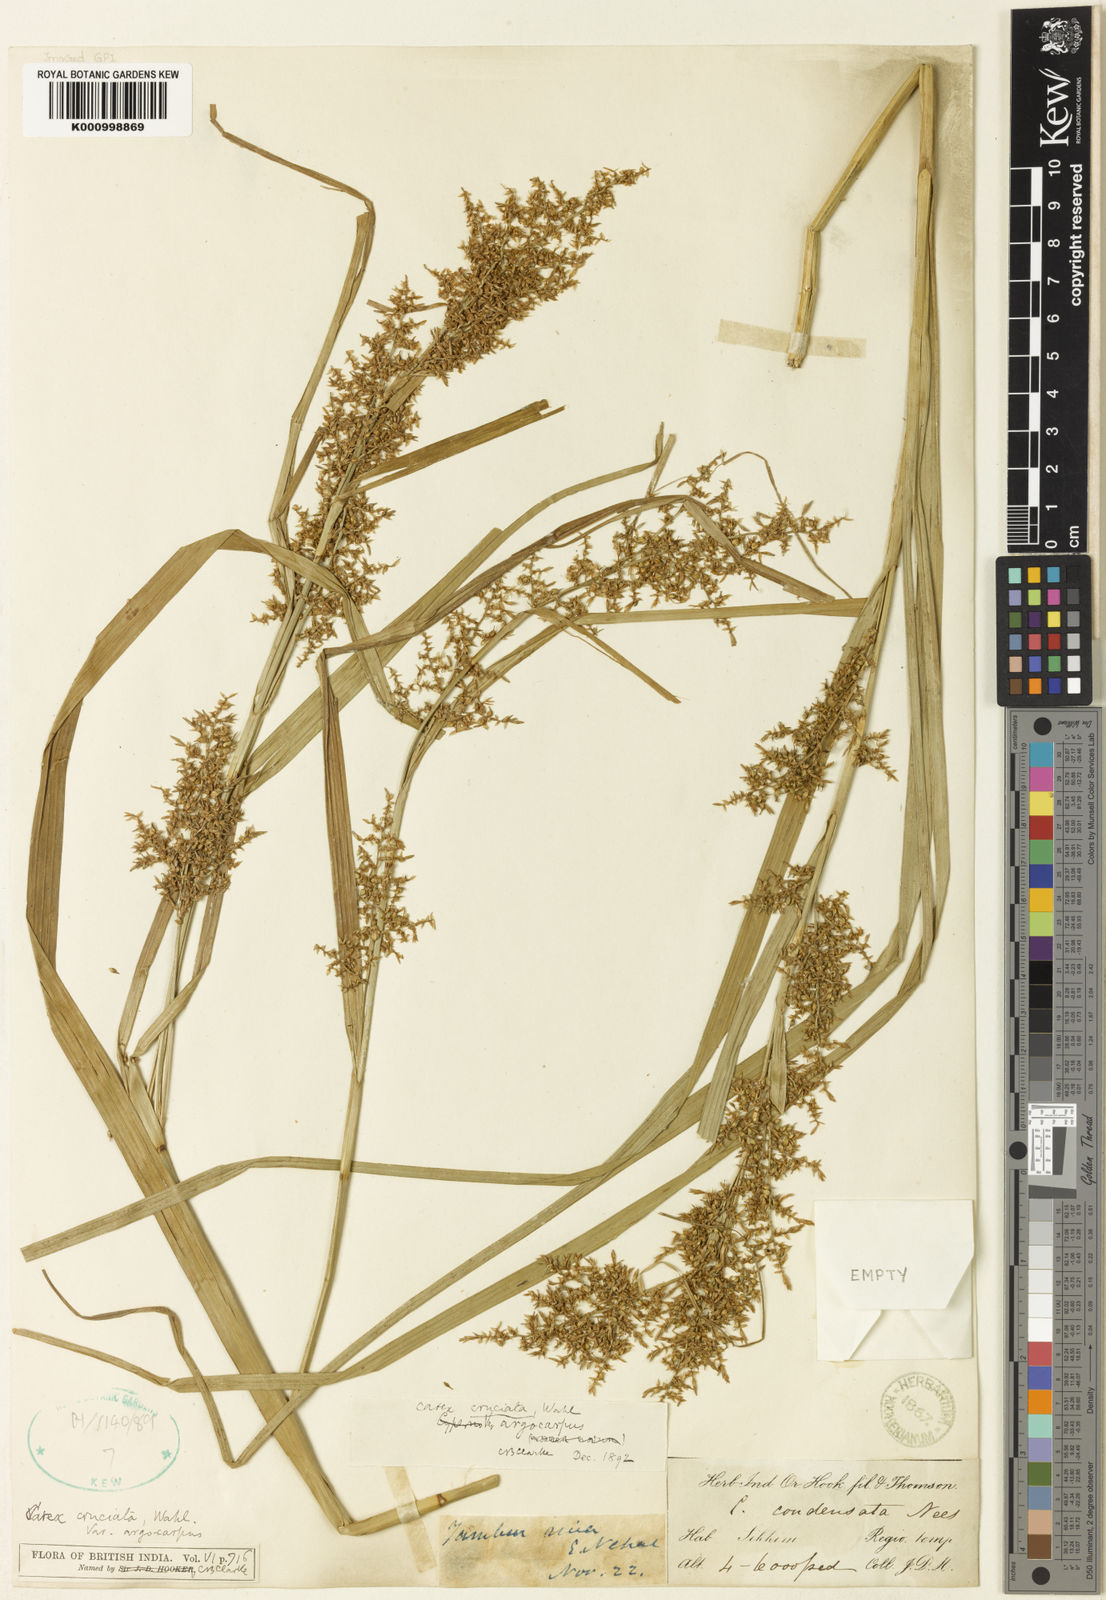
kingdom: Plantae
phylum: Tracheophyta
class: Liliopsida
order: Poales
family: Cyperaceae
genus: Carex
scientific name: Carex cruciata
